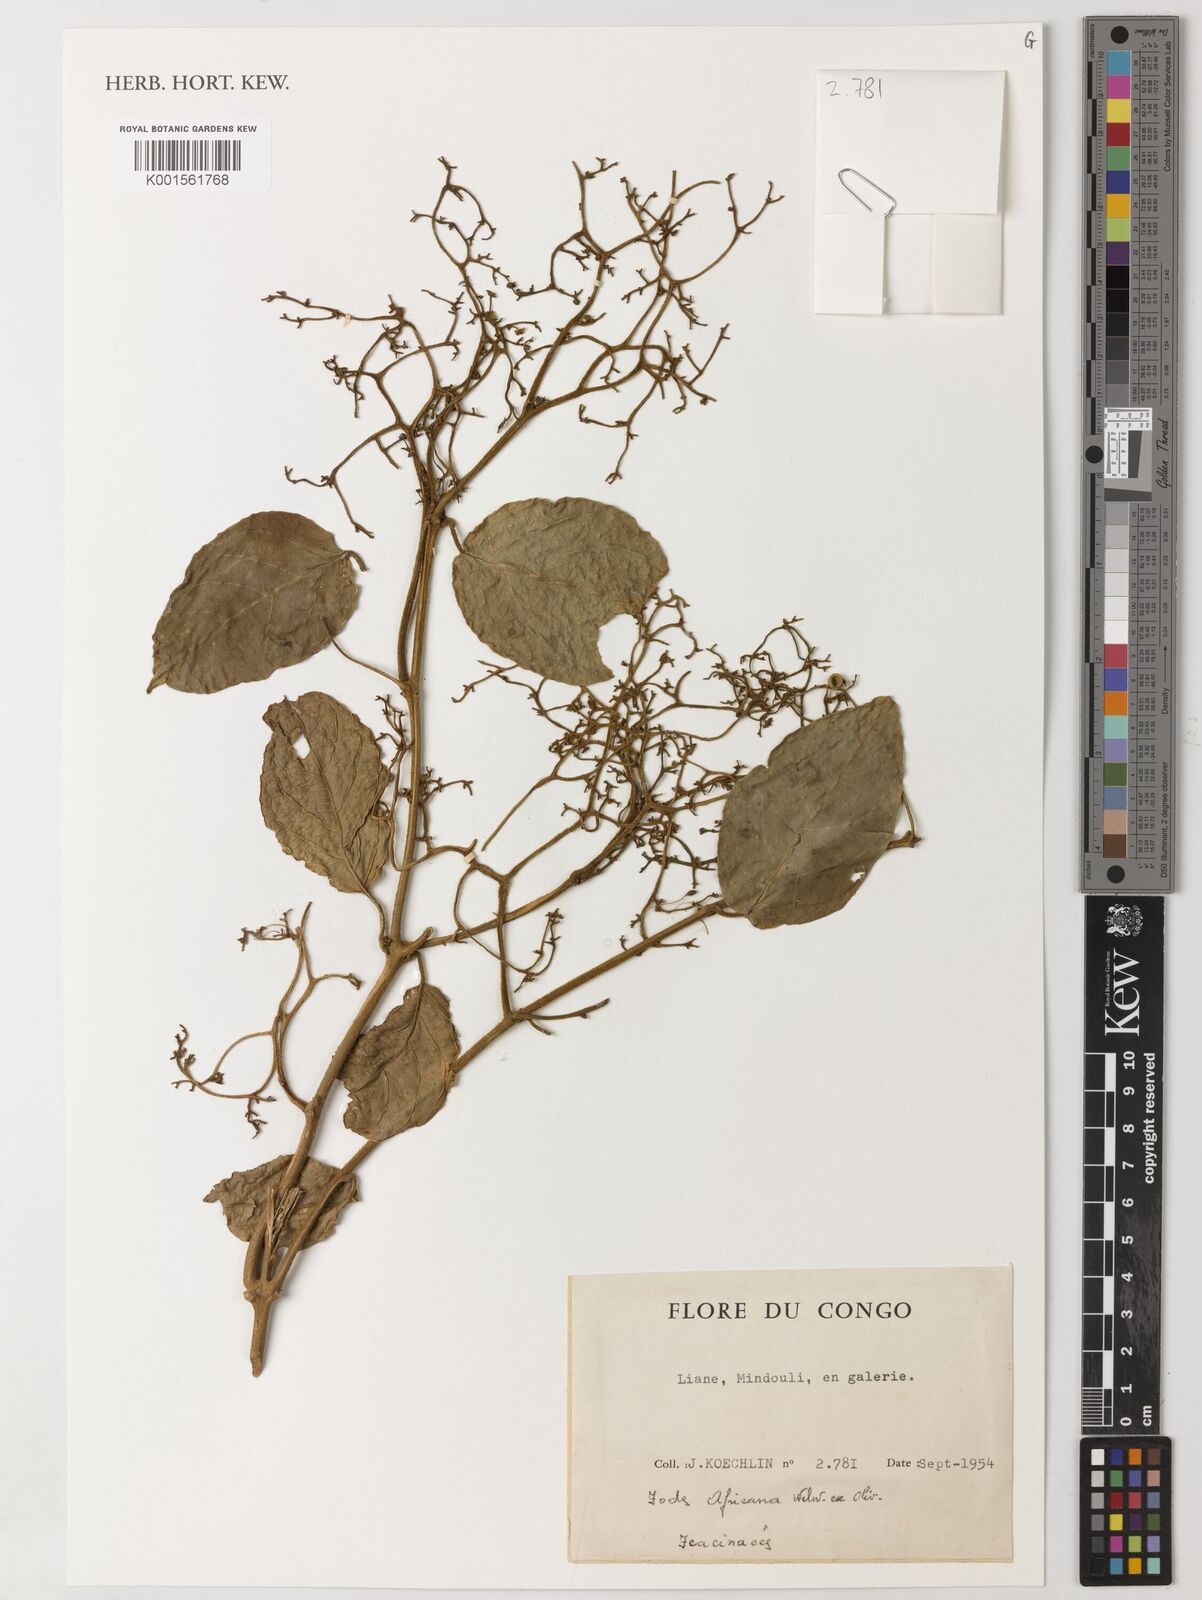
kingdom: Plantae
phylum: Tracheophyta
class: Magnoliopsida
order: Icacinales
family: Icacinaceae
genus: Iodes
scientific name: Iodes africana
